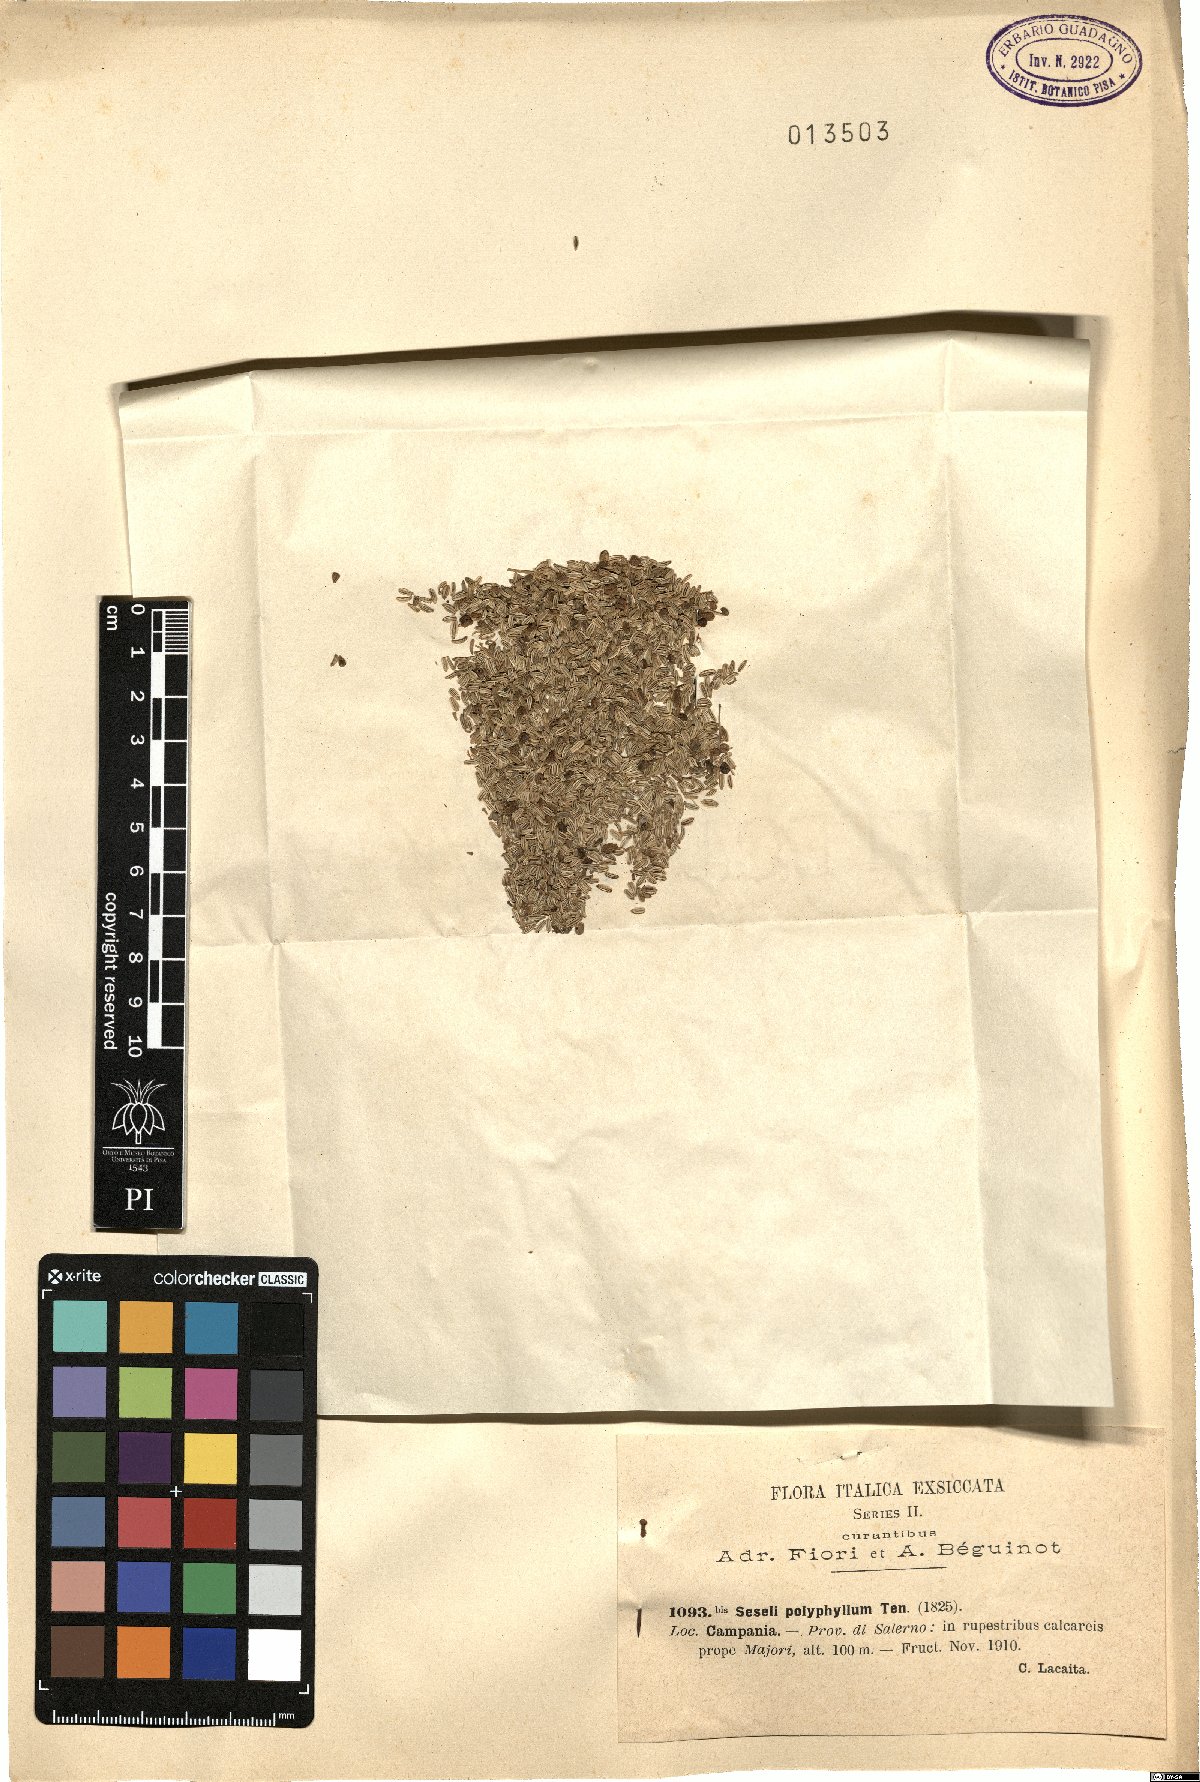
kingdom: Plantae
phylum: Tracheophyta
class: Magnoliopsida
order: Apiales
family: Apiaceae
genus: Seseli
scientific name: Seseli polyphyllum
